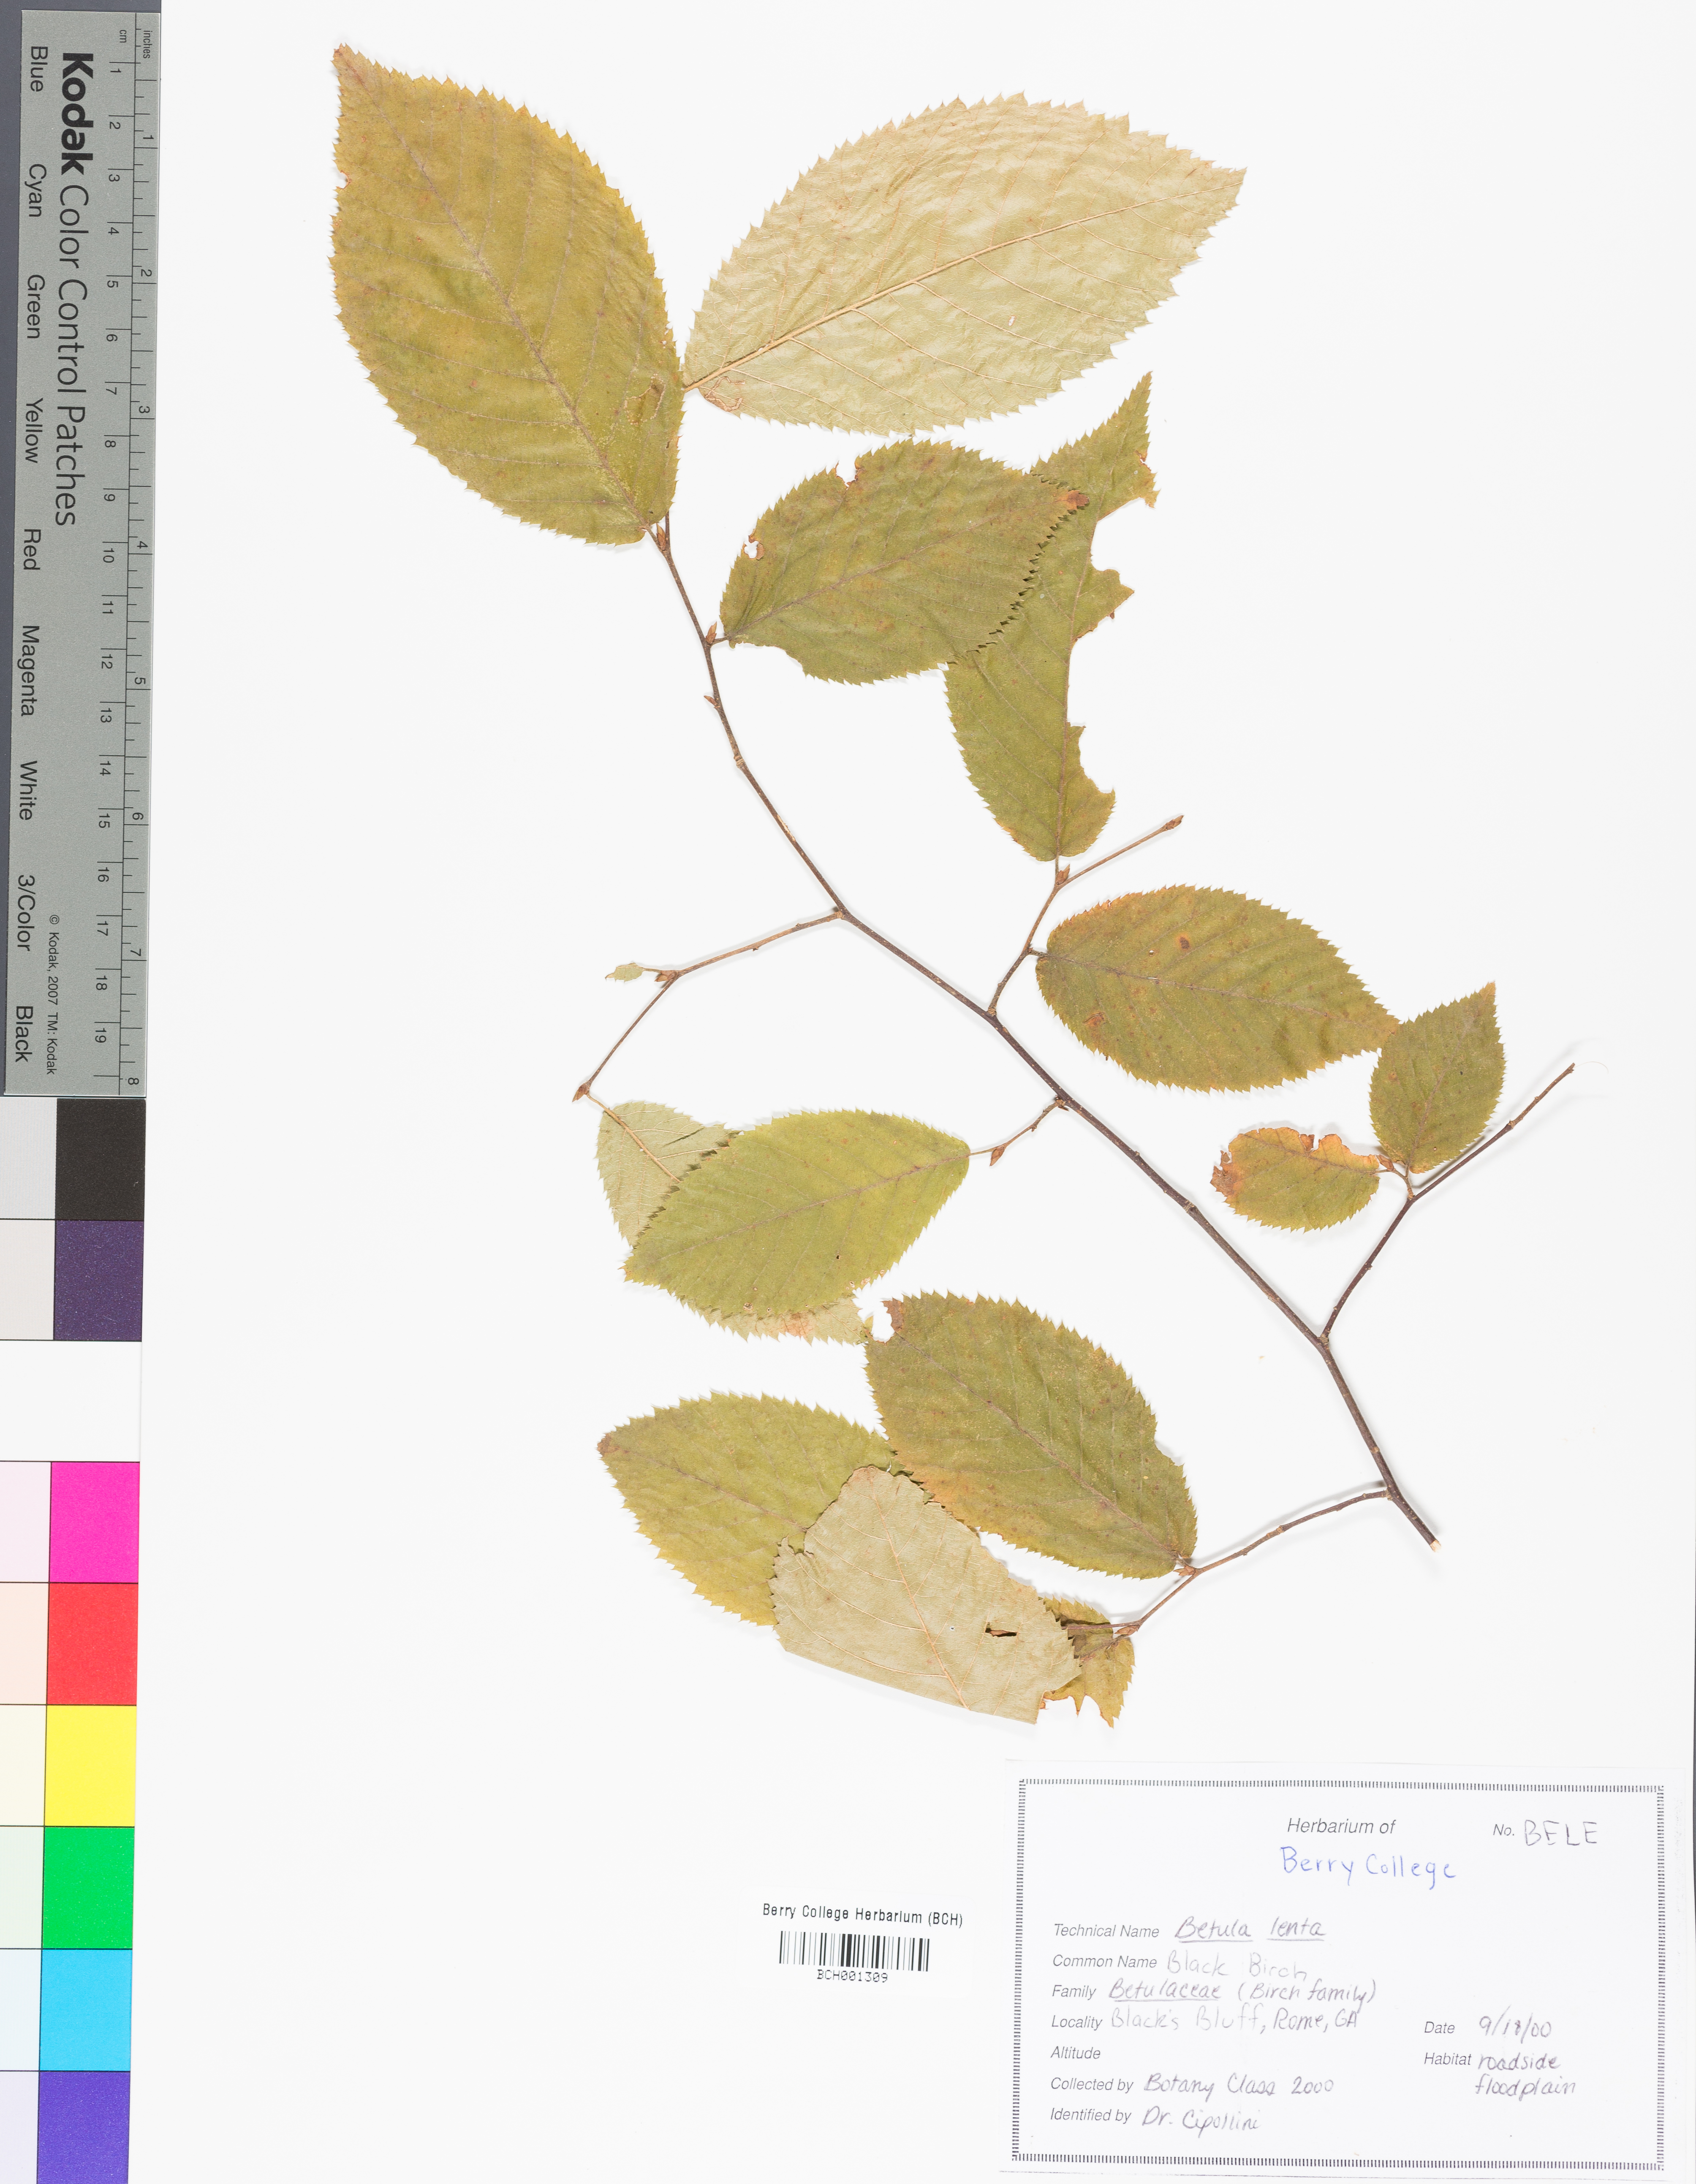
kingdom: Plantae
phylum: Tracheophyta
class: Magnoliopsida
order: Fagales
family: Betulaceae
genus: Betula
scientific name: Betula lenta
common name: Black birch
